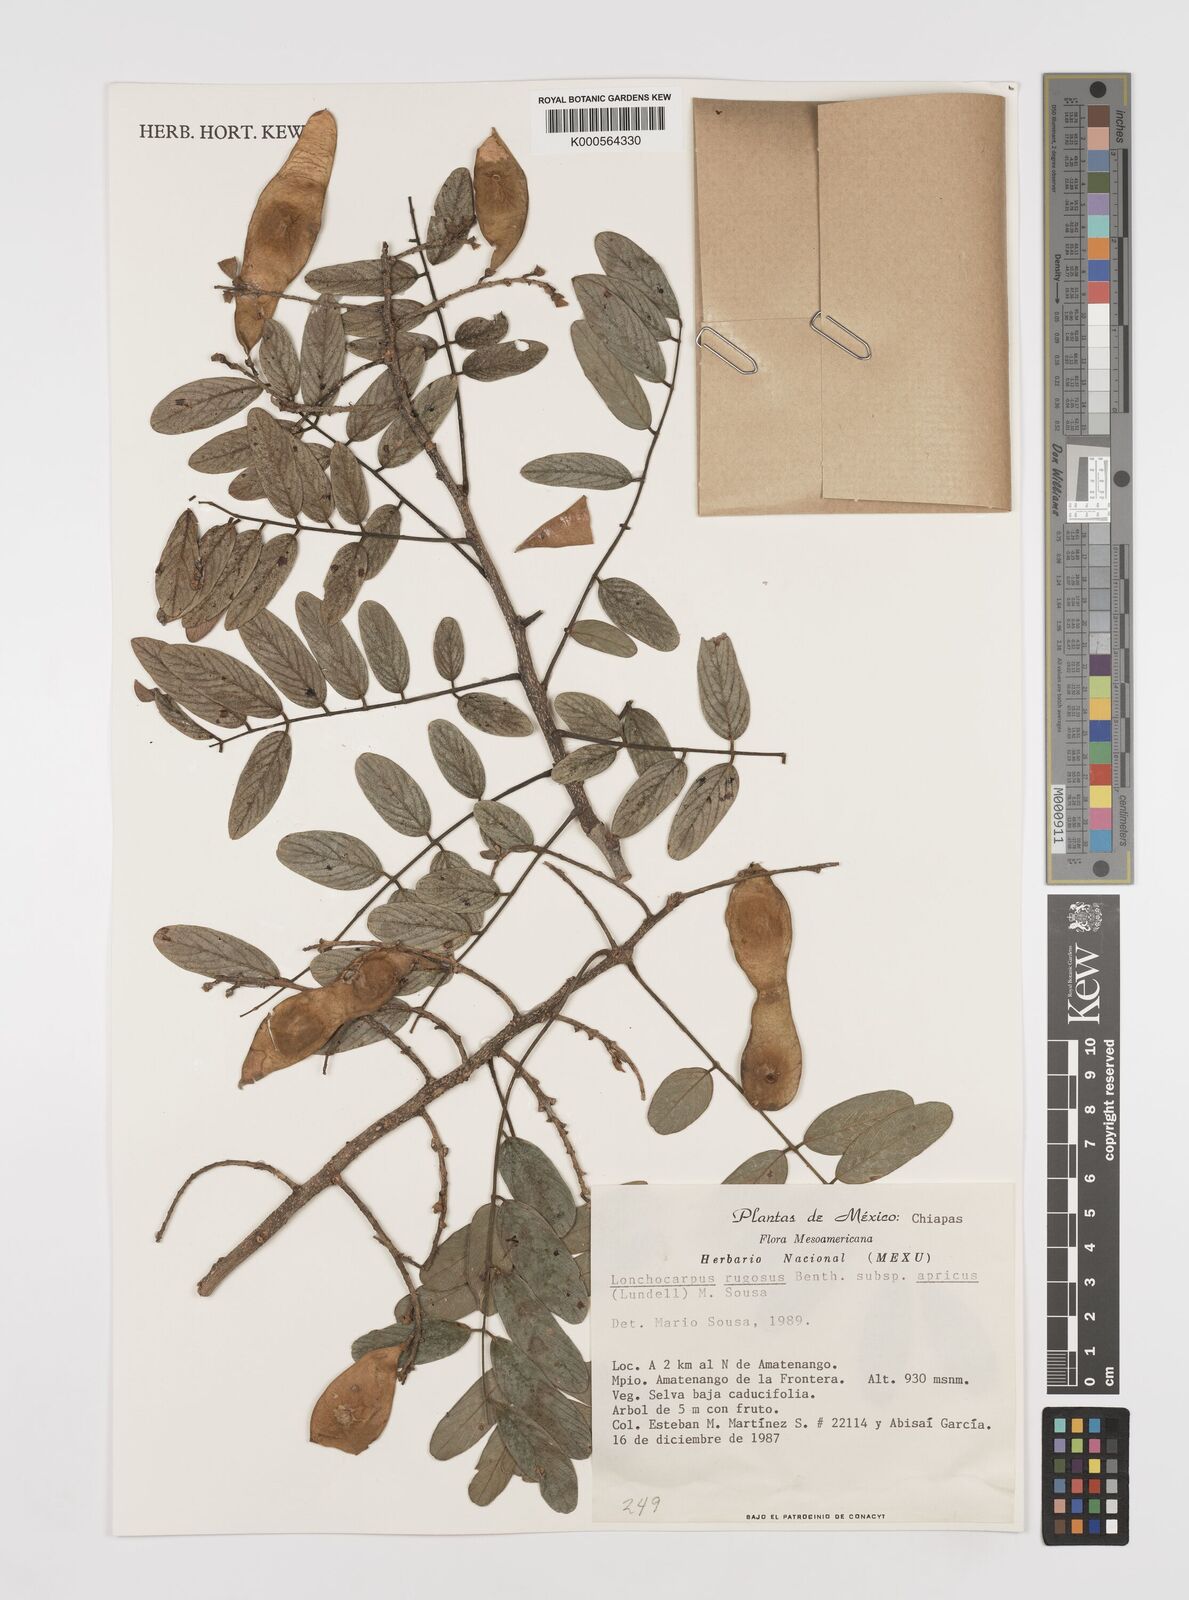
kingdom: Plantae
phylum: Tracheophyta
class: Magnoliopsida
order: Fabales
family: Fabaceae
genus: Lonchocarpus
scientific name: Lonchocarpus rugosus
